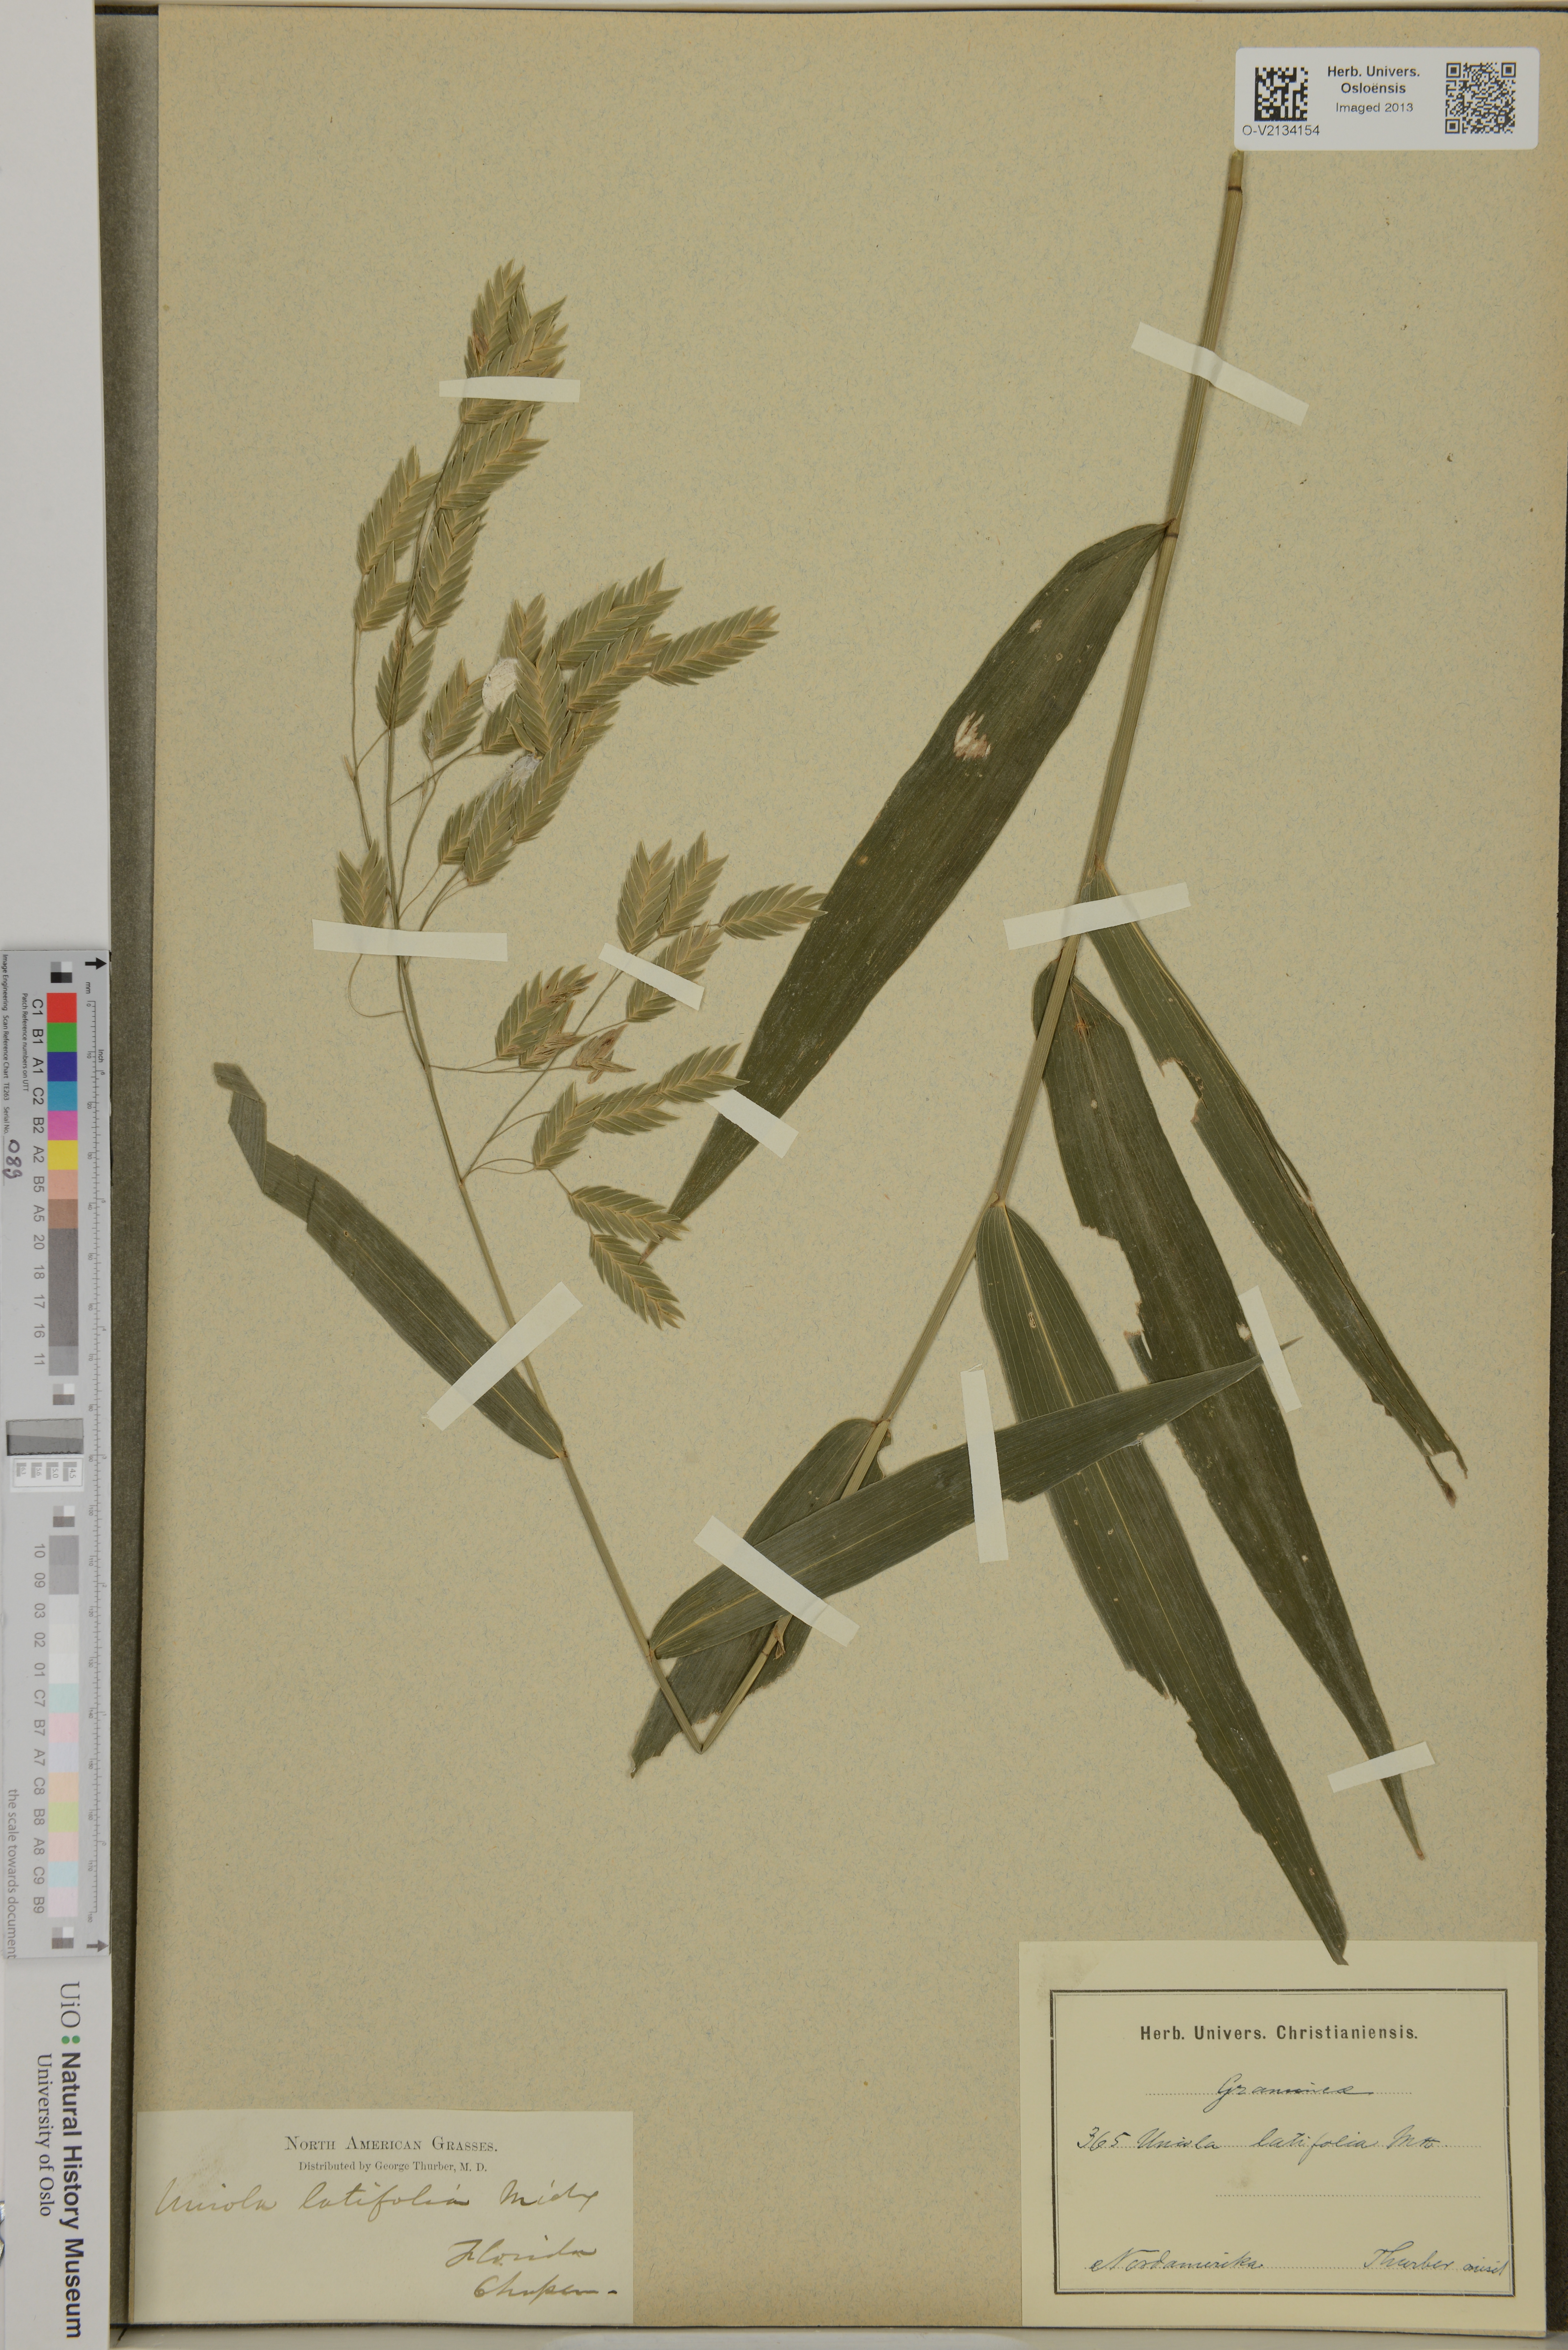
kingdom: Plantae
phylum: Tracheophyta
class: Liliopsida
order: Poales
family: Poaceae
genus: Chasmanthium
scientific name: Chasmanthium latifolium
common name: Broad-leaved chasmanthium
